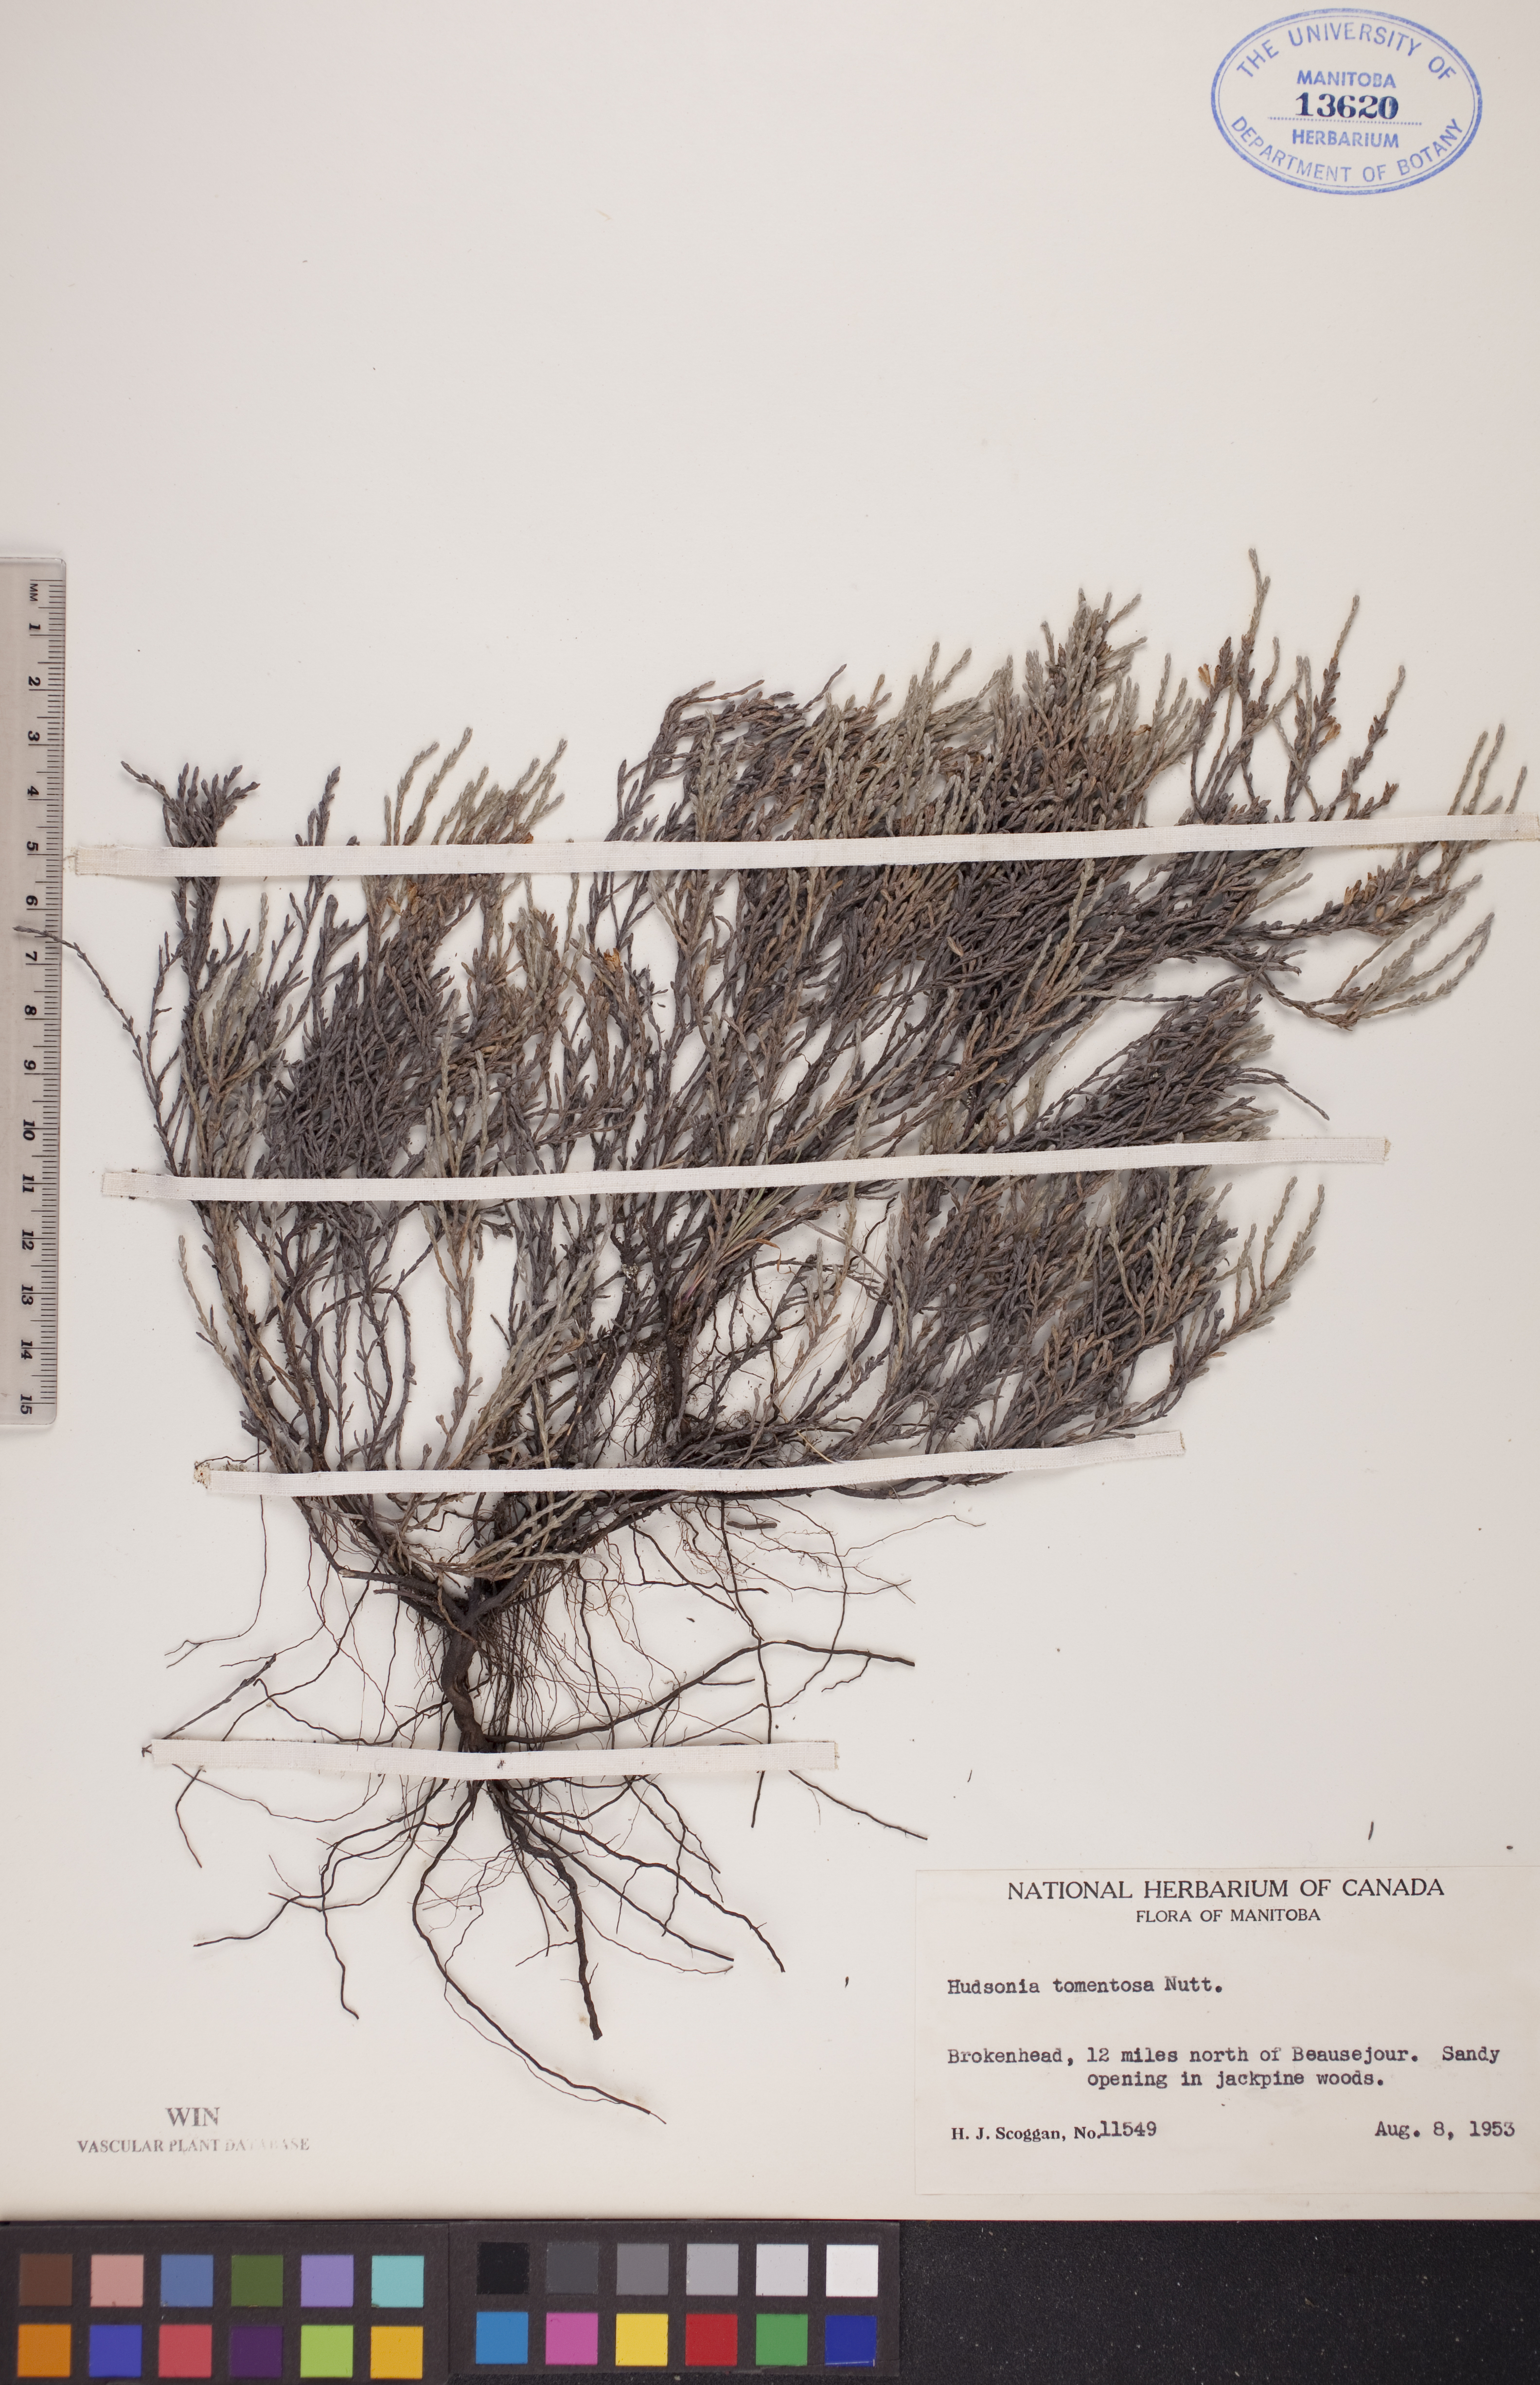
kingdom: Plantae
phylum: Tracheophyta
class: Magnoliopsida
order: Malvales
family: Cistaceae
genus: Hudsonia
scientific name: Hudsonia tomentosa
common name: Beach-heath
